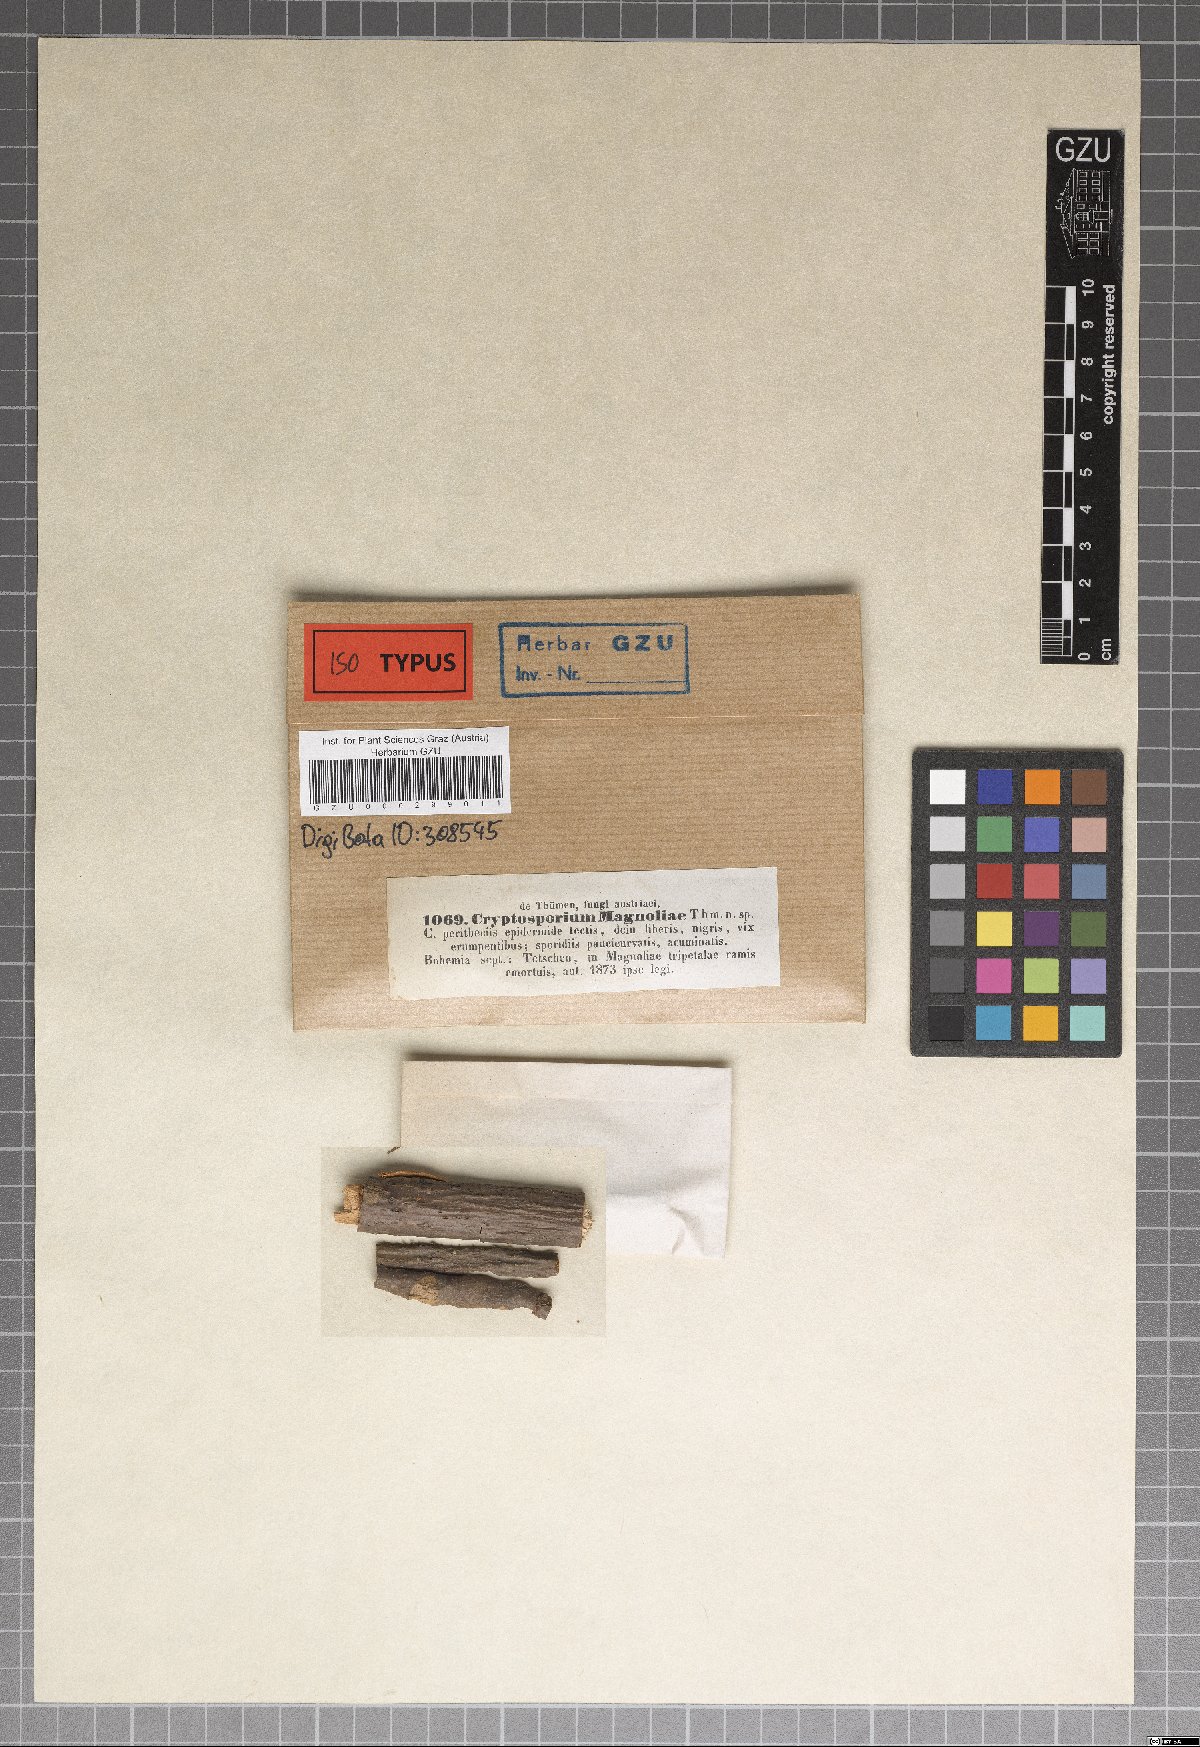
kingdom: Fungi
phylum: Ascomycota
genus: Cryptosporium
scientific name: Cryptosporium
